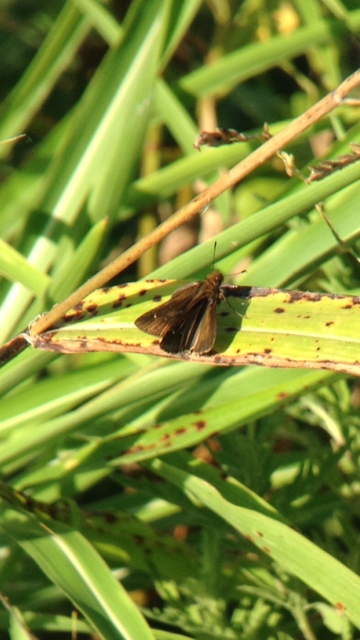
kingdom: Animalia
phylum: Arthropoda
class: Insecta
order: Lepidoptera
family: Hesperiidae
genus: Euphyes
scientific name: Euphyes vestris
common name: Dun Skipper
